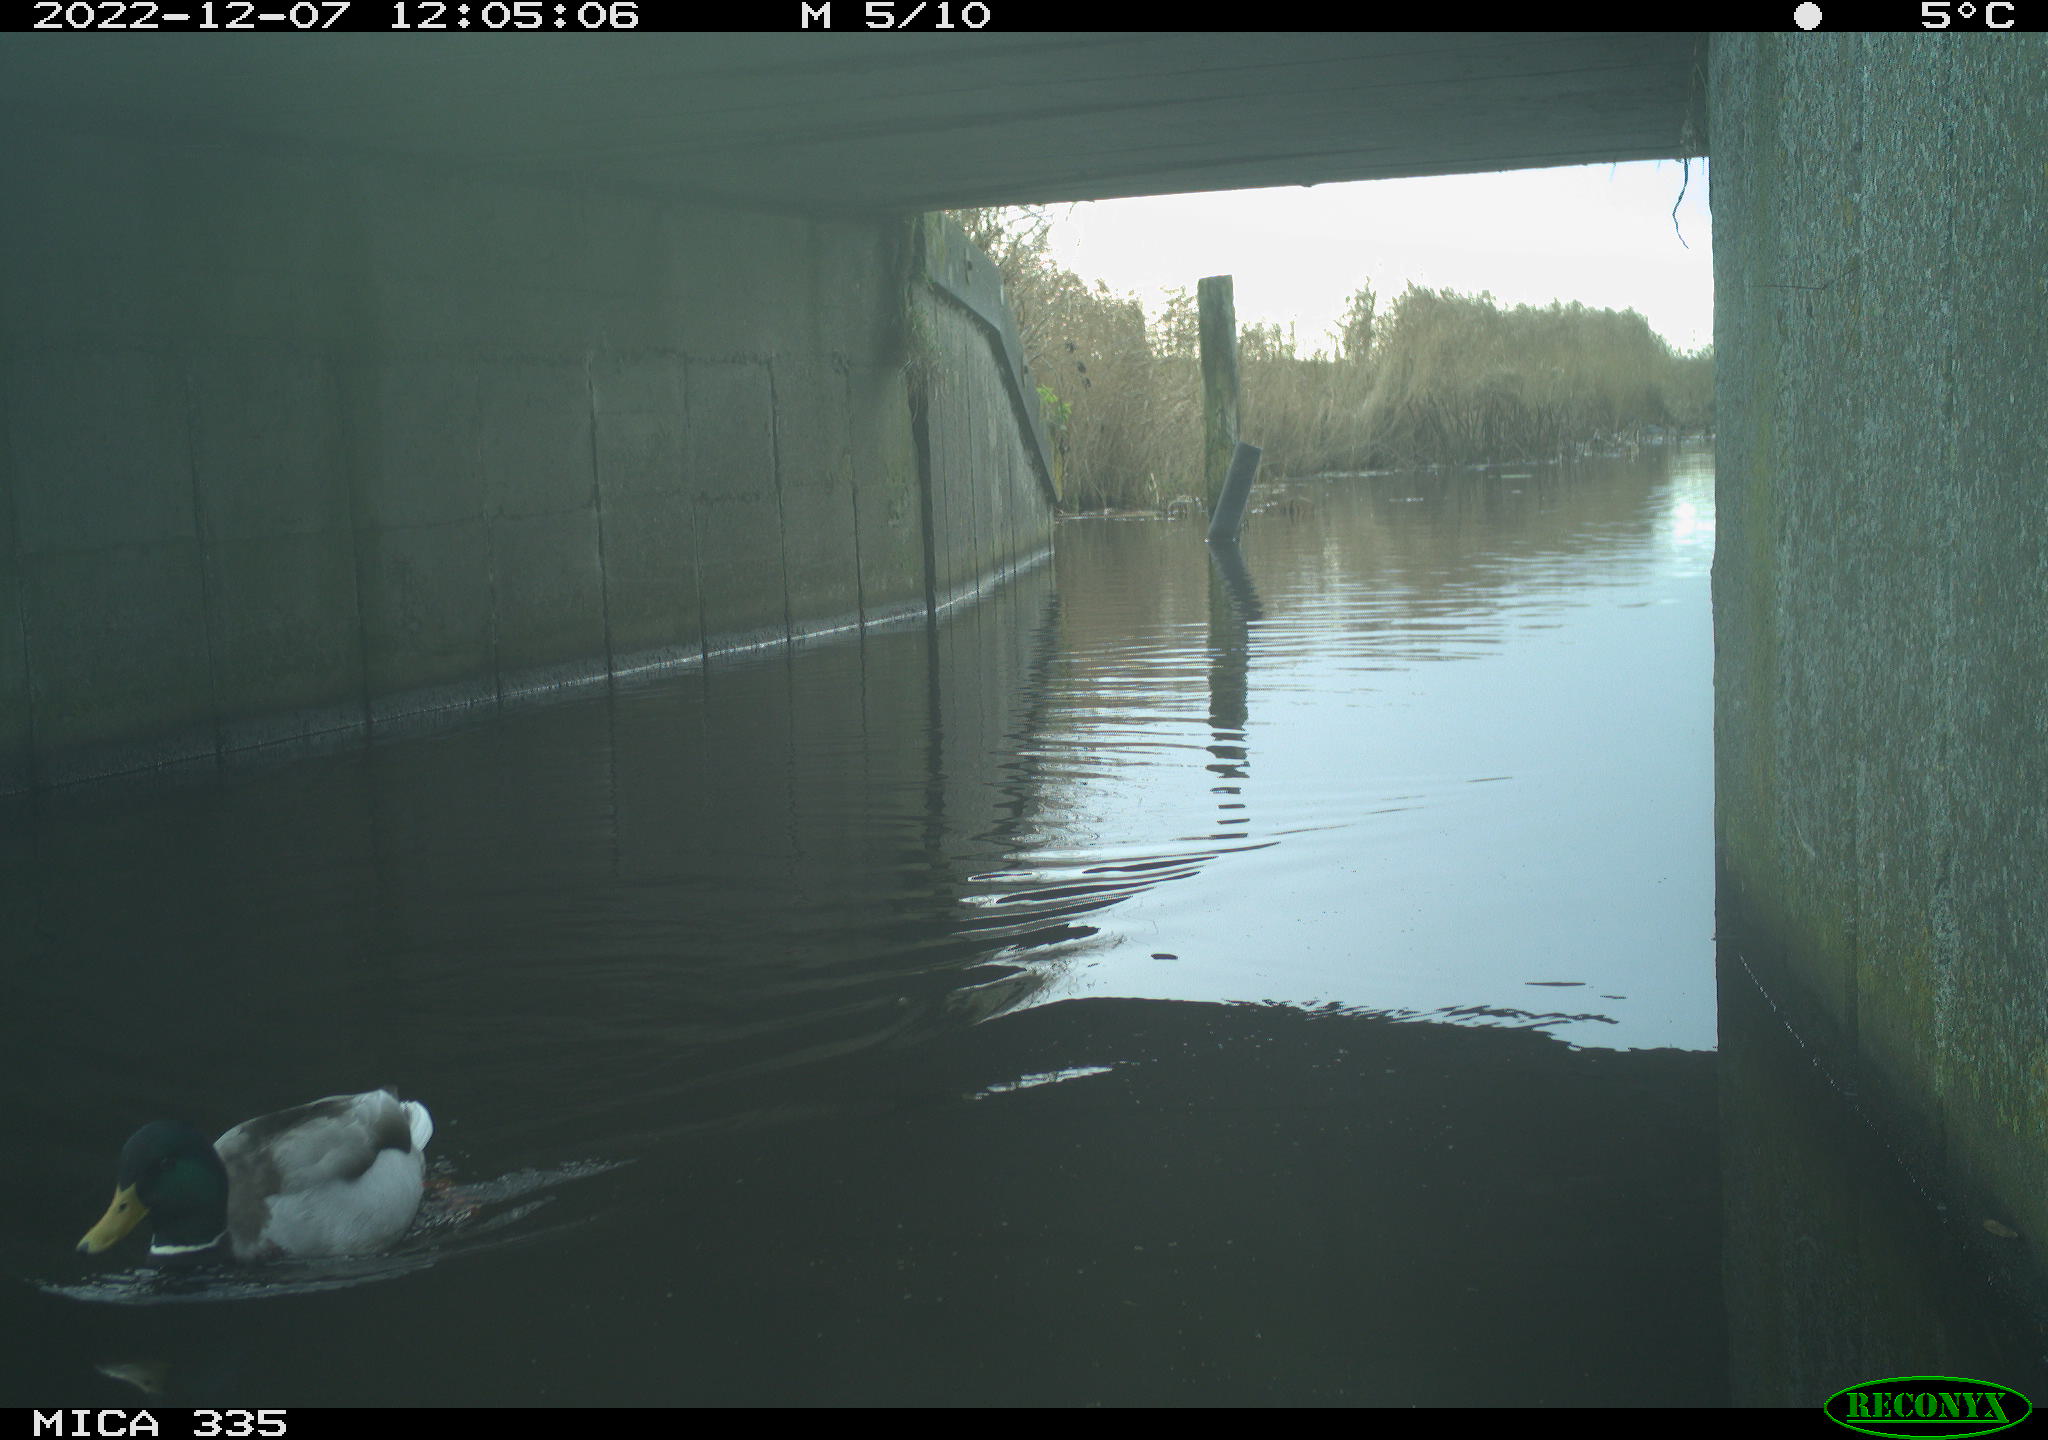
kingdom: Animalia
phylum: Chordata
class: Aves
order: Anseriformes
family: Anatidae
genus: Anas
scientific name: Anas
